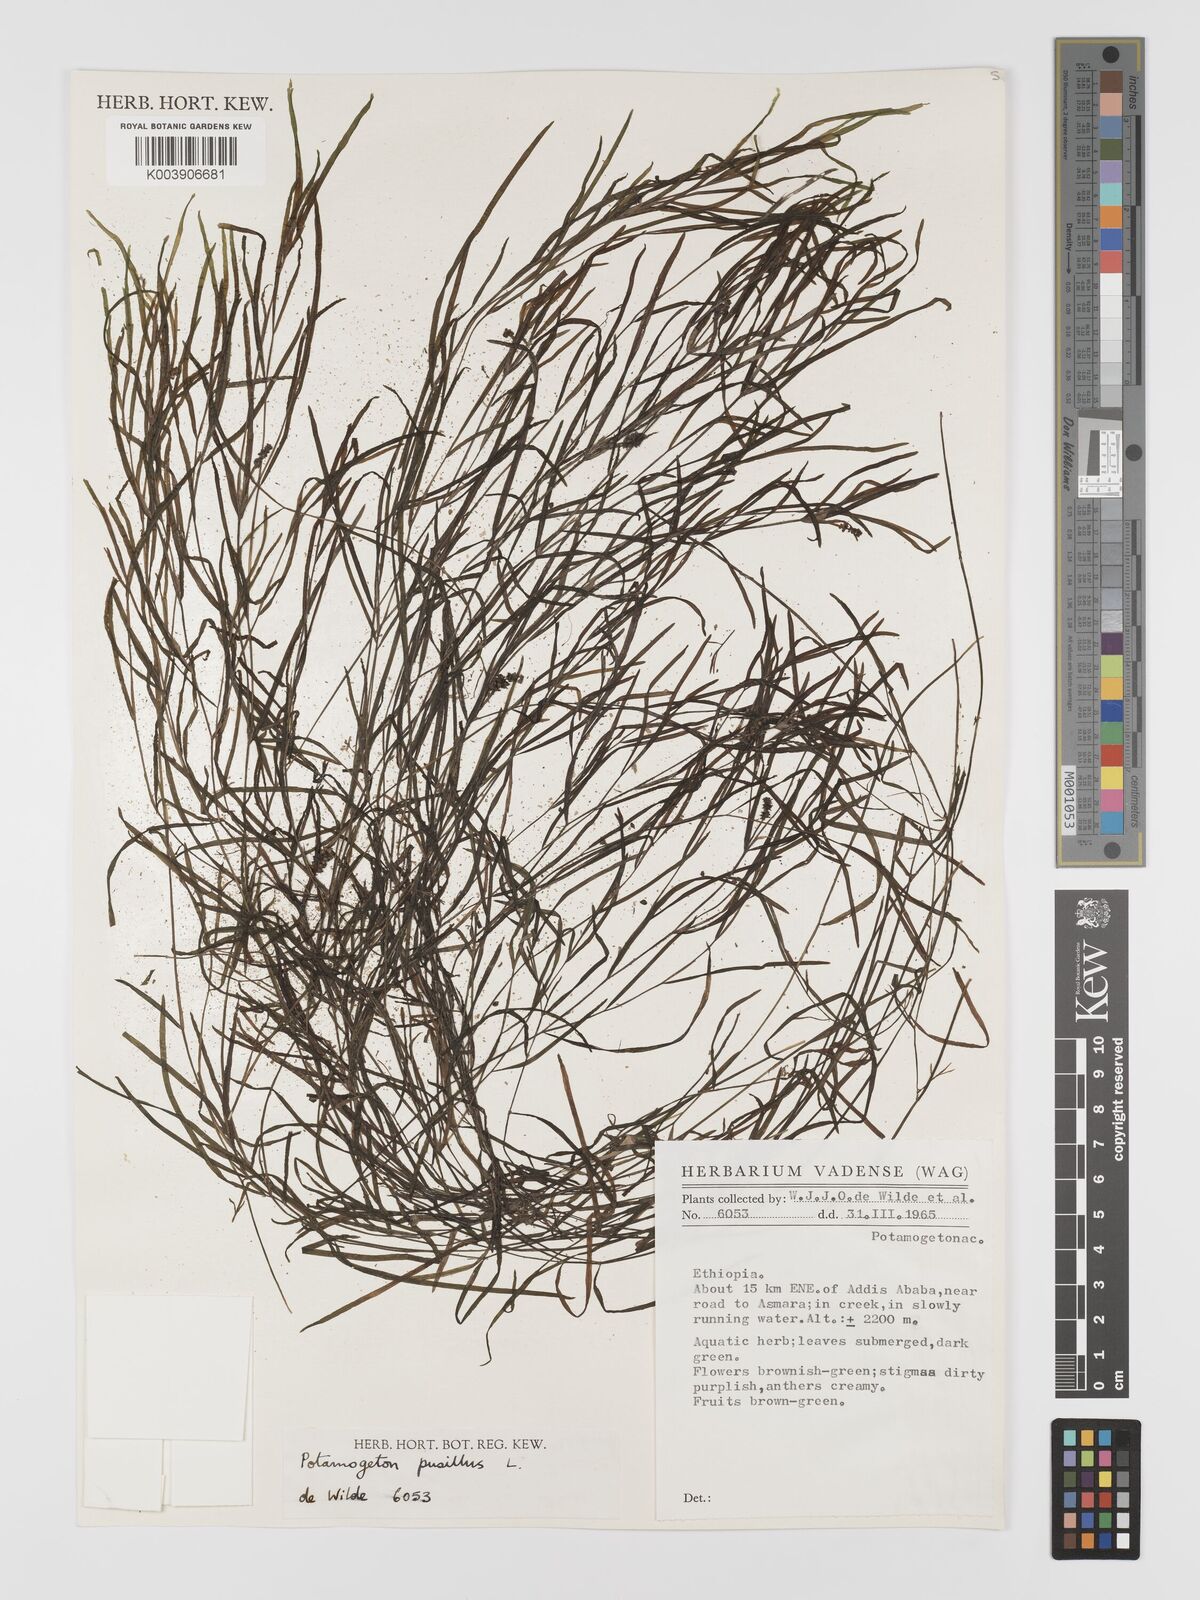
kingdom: Plantae
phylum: Tracheophyta
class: Liliopsida
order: Alismatales
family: Potamogetonaceae
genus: Potamogeton
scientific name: Potamogeton parvifolius
